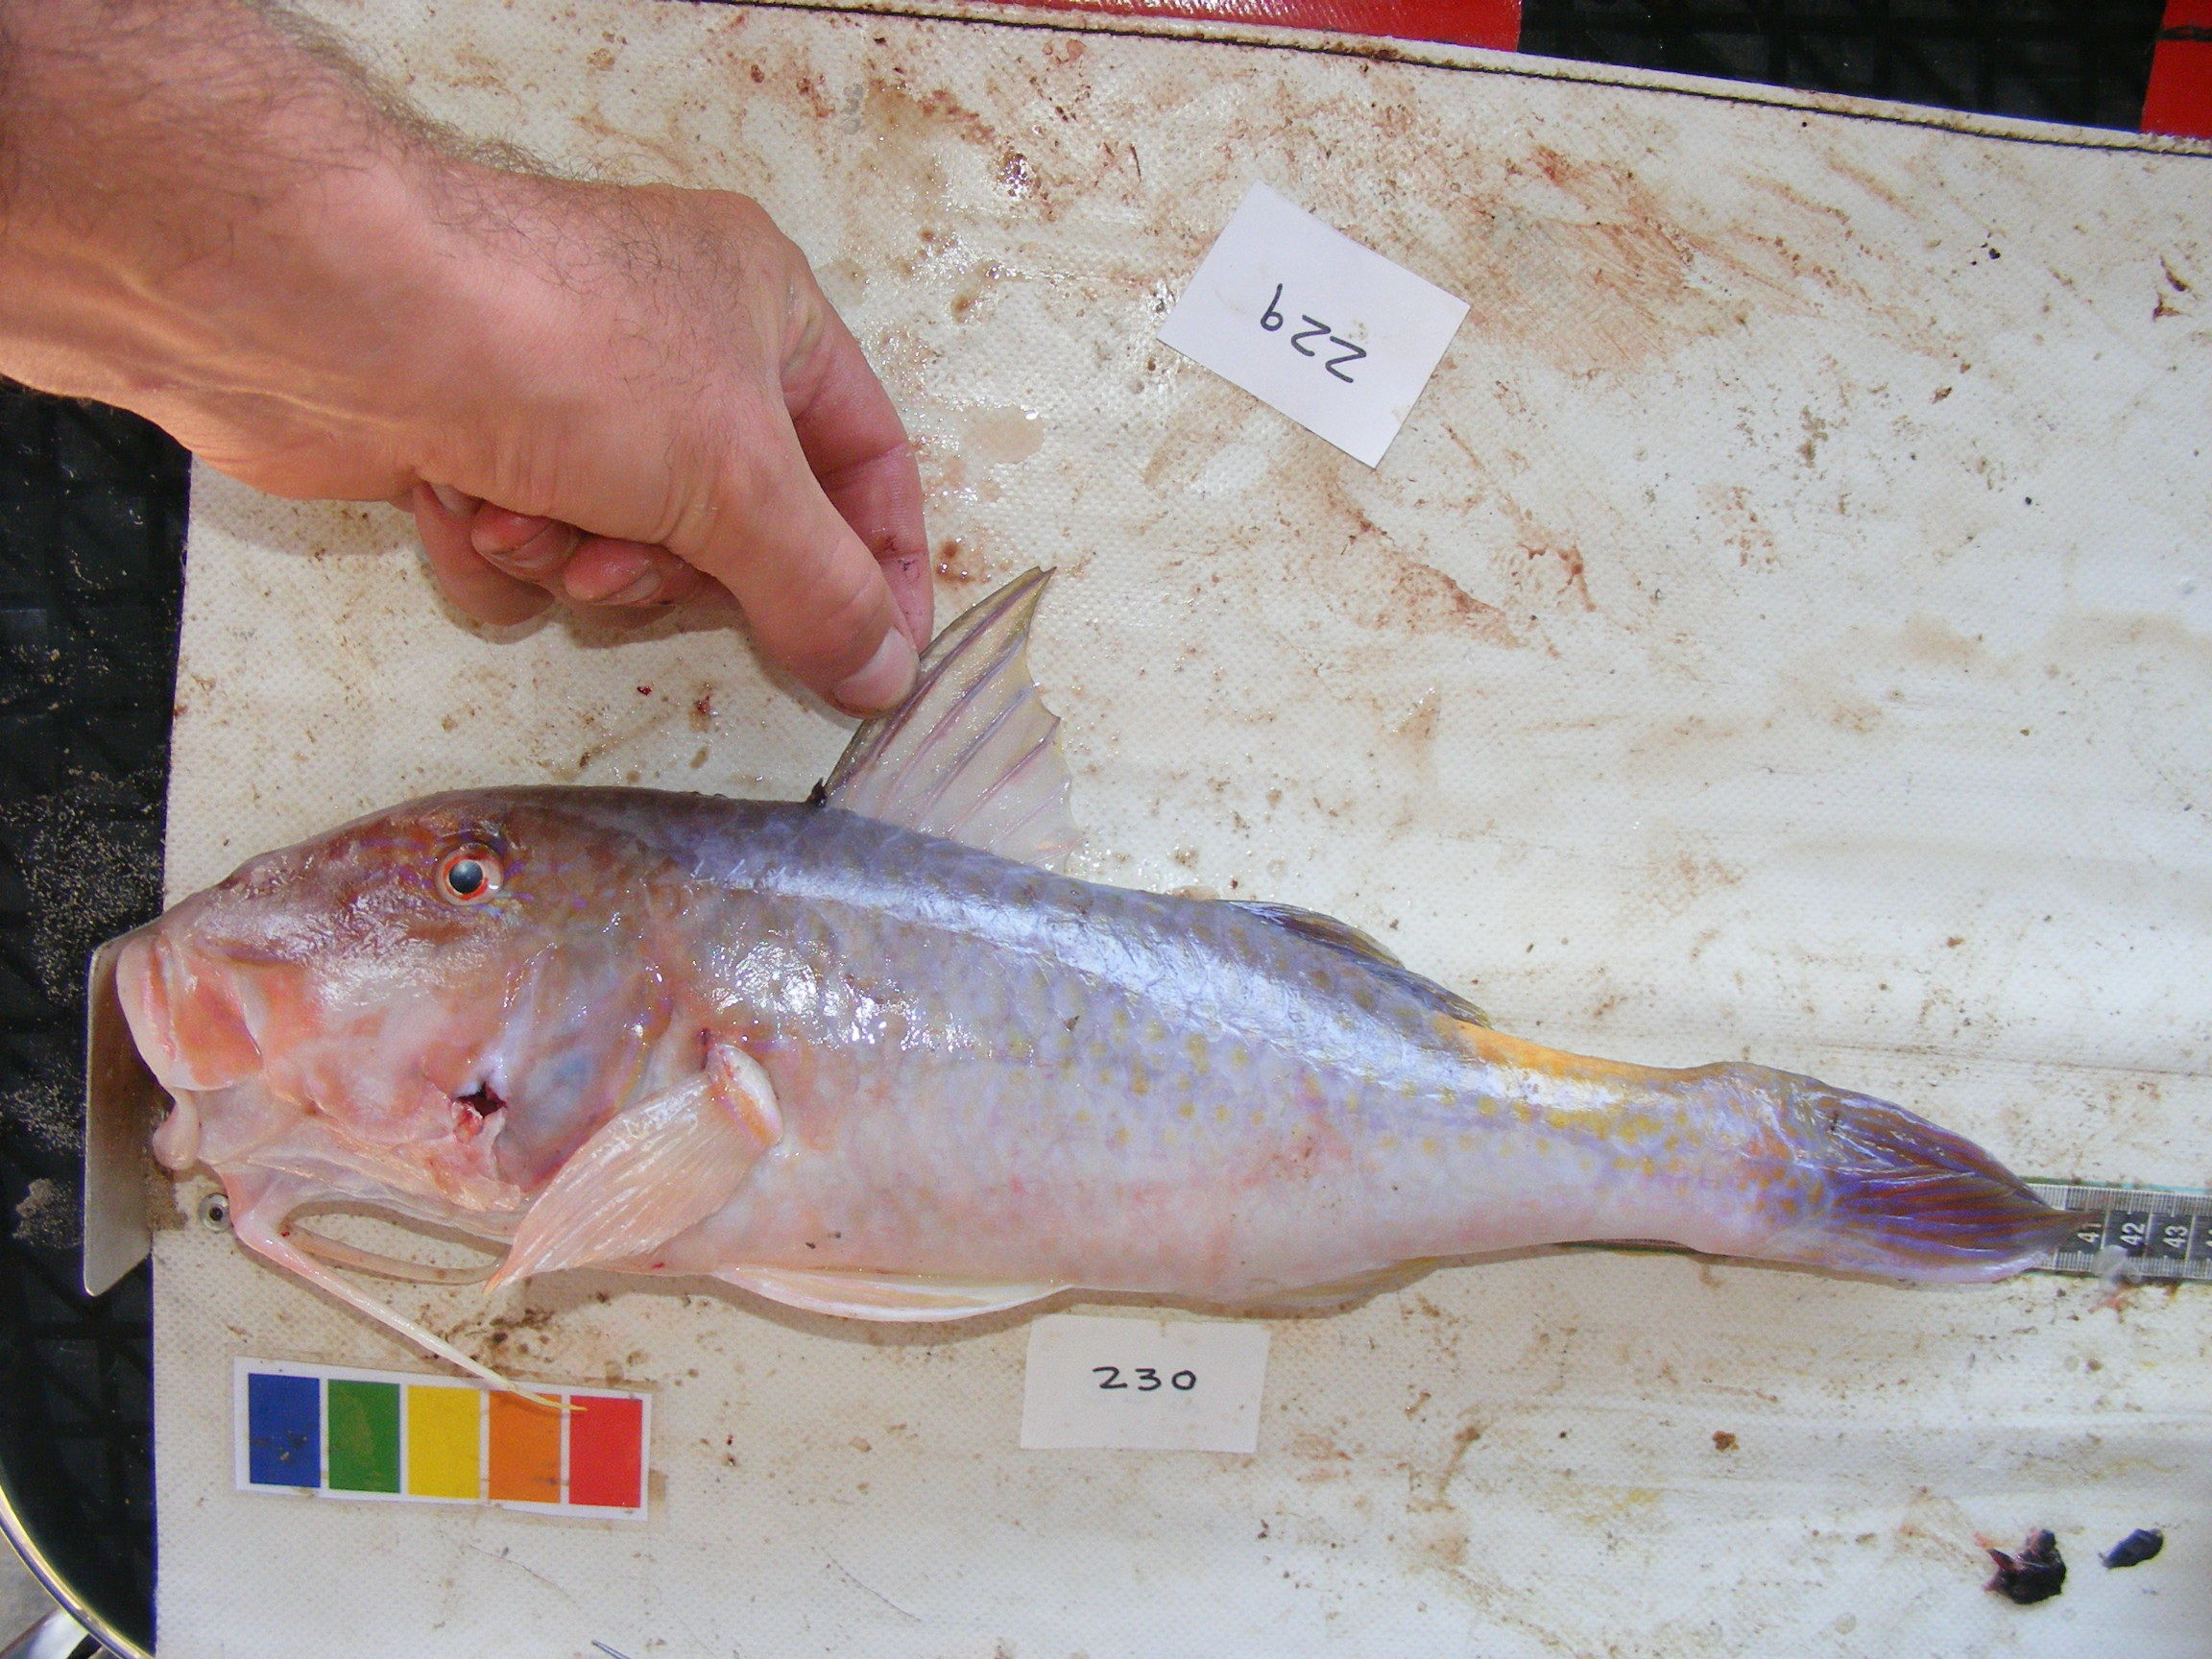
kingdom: Animalia
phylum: Chordata
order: Perciformes
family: Mullidae
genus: Parupeneus
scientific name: Parupeneus cyclostomus
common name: Goldsaddle goatfish
